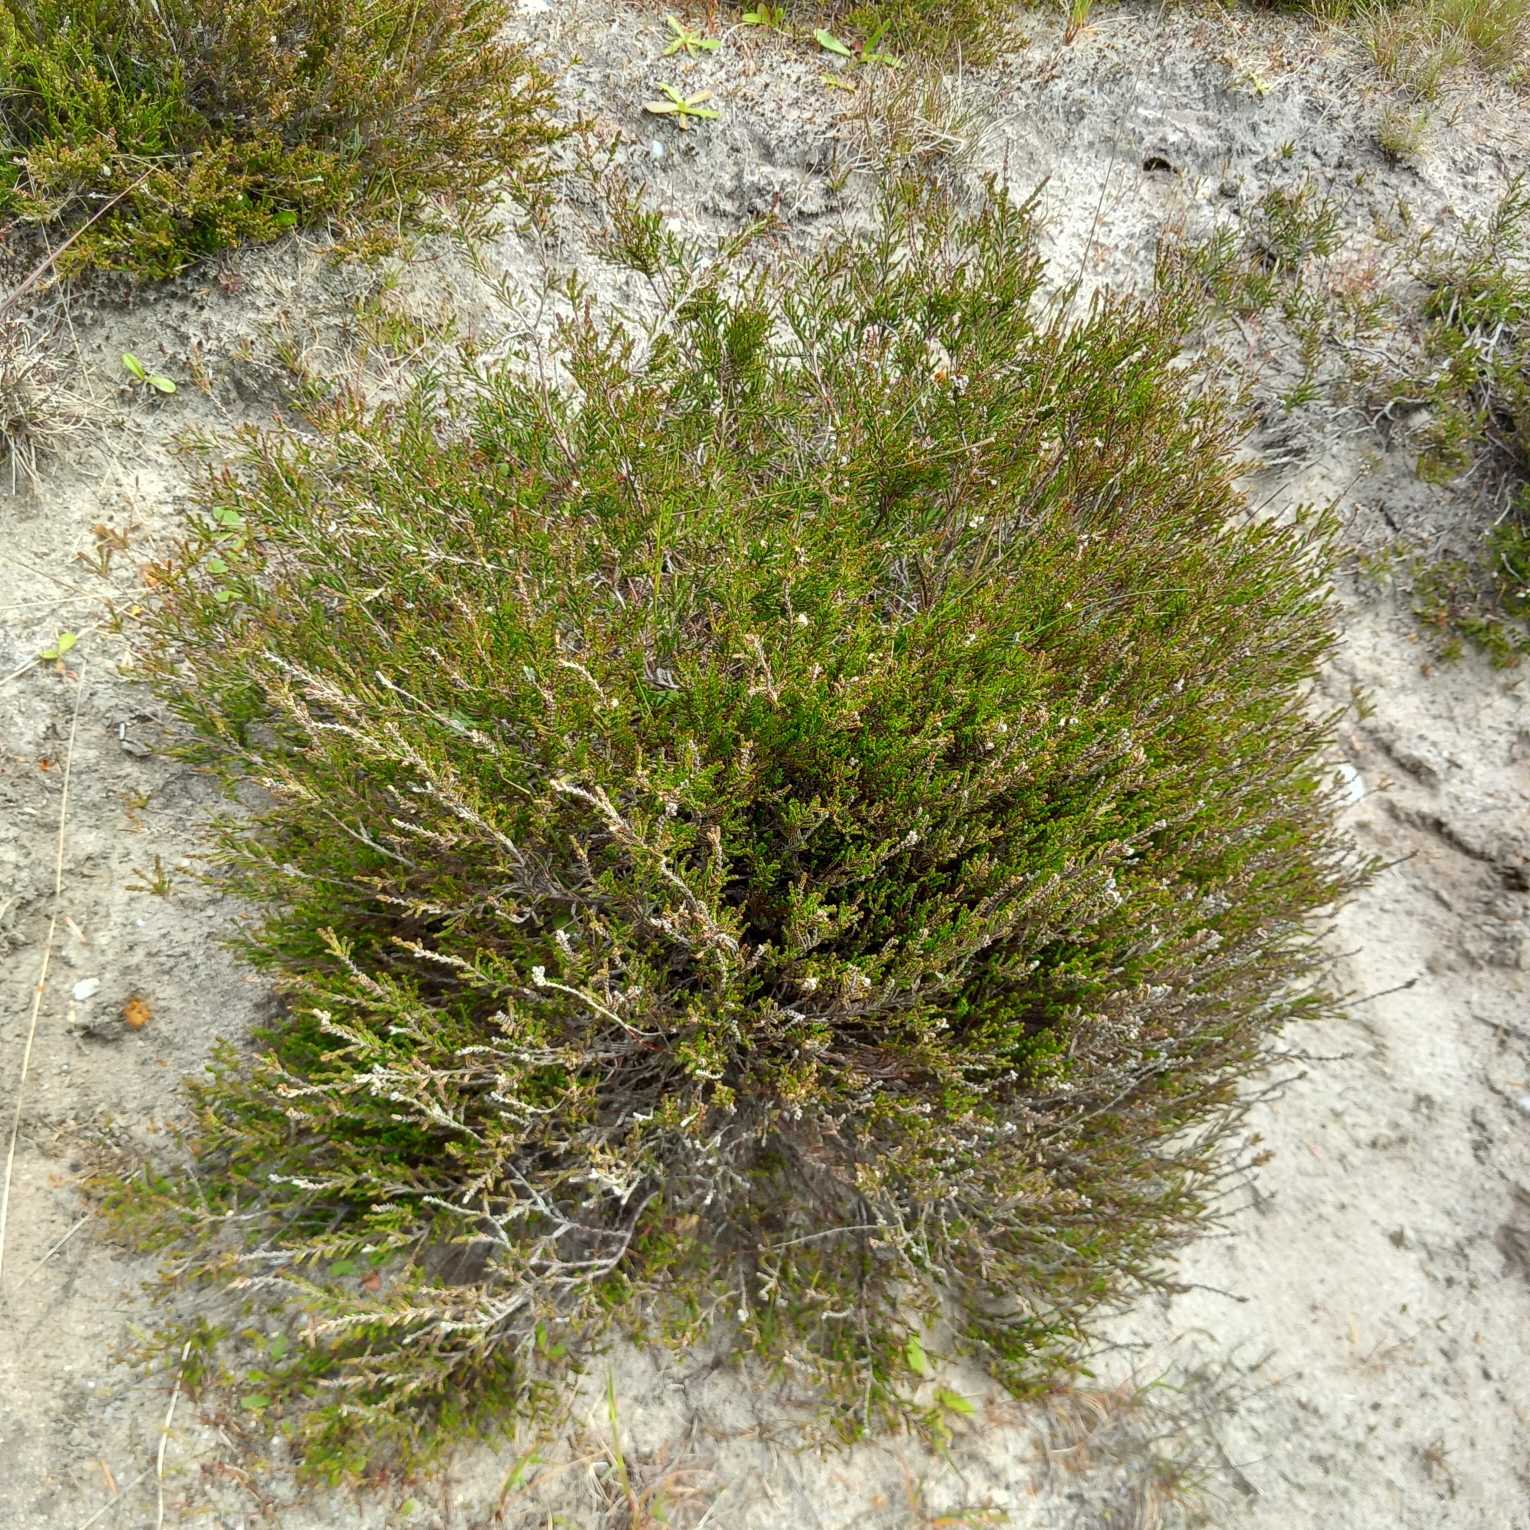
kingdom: Plantae
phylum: Tracheophyta
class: Magnoliopsida
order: Ericales
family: Ericaceae
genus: Calluna
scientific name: Calluna vulgaris
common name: Hedelyng
